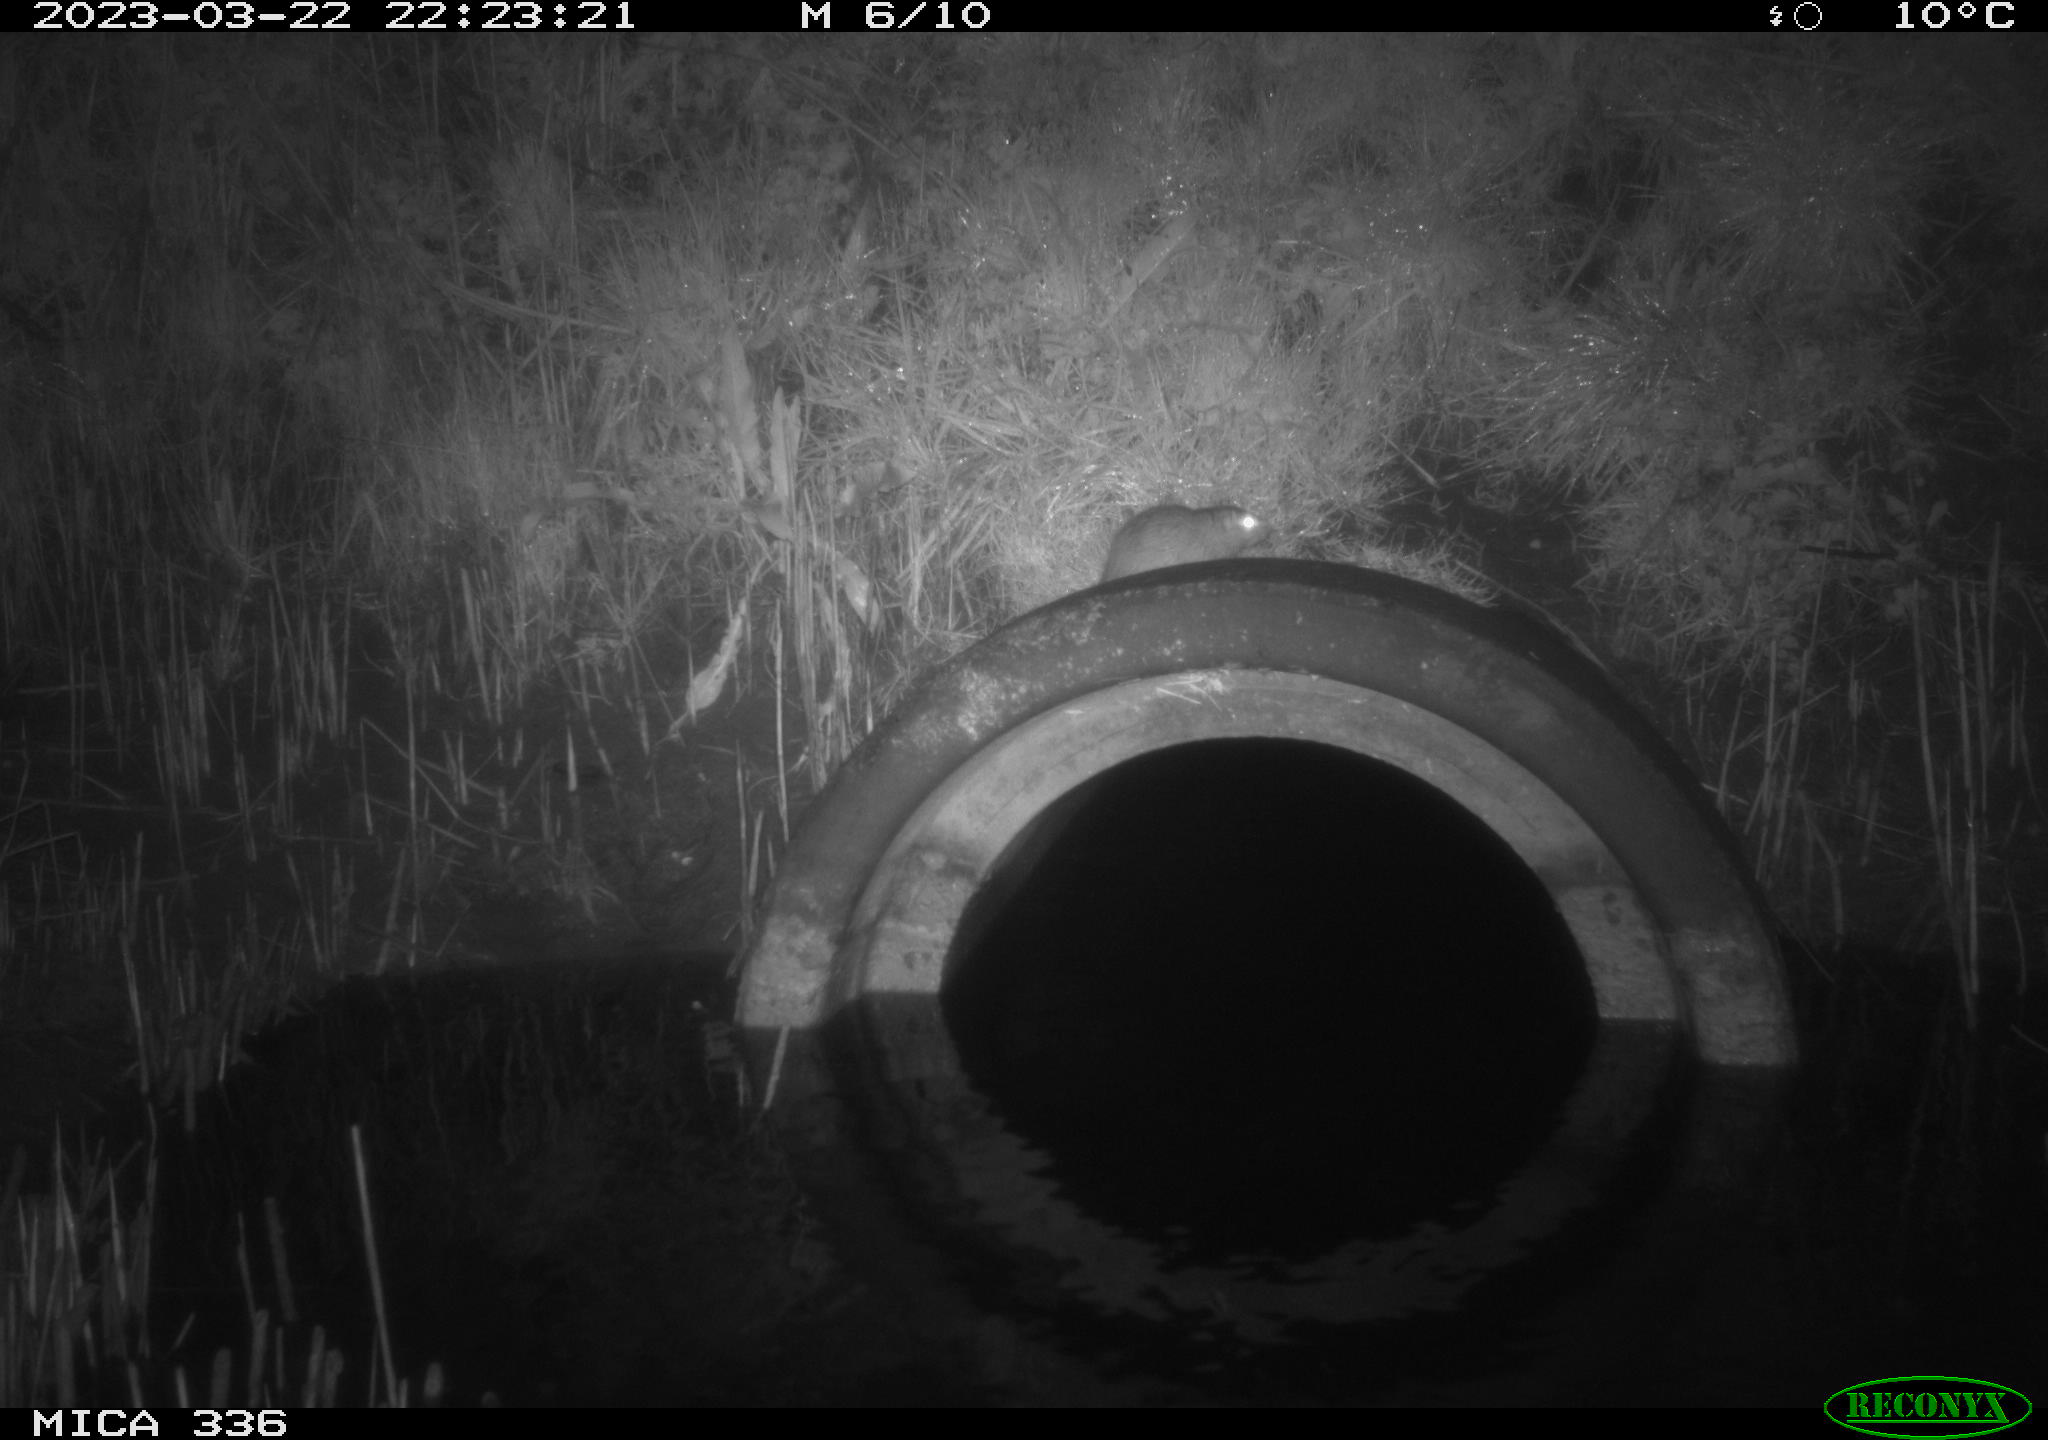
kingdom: Animalia
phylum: Chordata
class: Mammalia
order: Rodentia
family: Muridae
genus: Rattus
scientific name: Rattus norvegicus
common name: Brown rat
